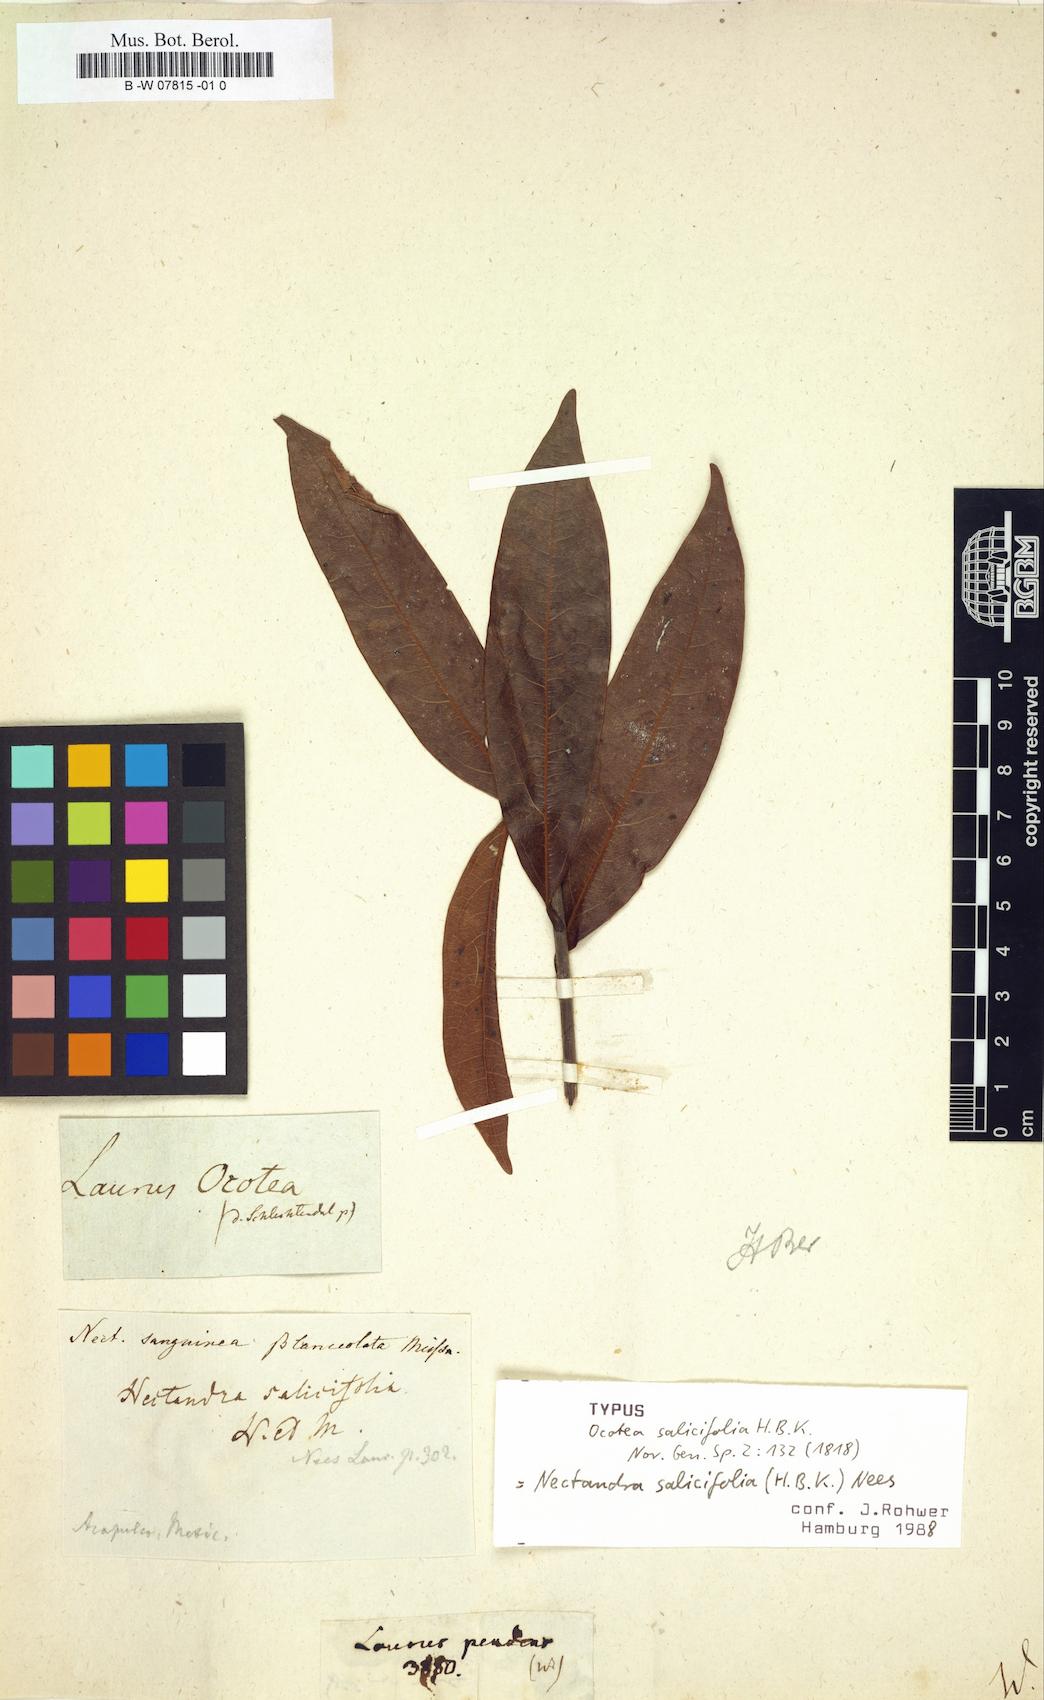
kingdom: Plantae
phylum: Tracheophyta
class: Magnoliopsida
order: Laurales
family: Lauraceae
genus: Damburneya
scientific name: Damburneya salicifolia
